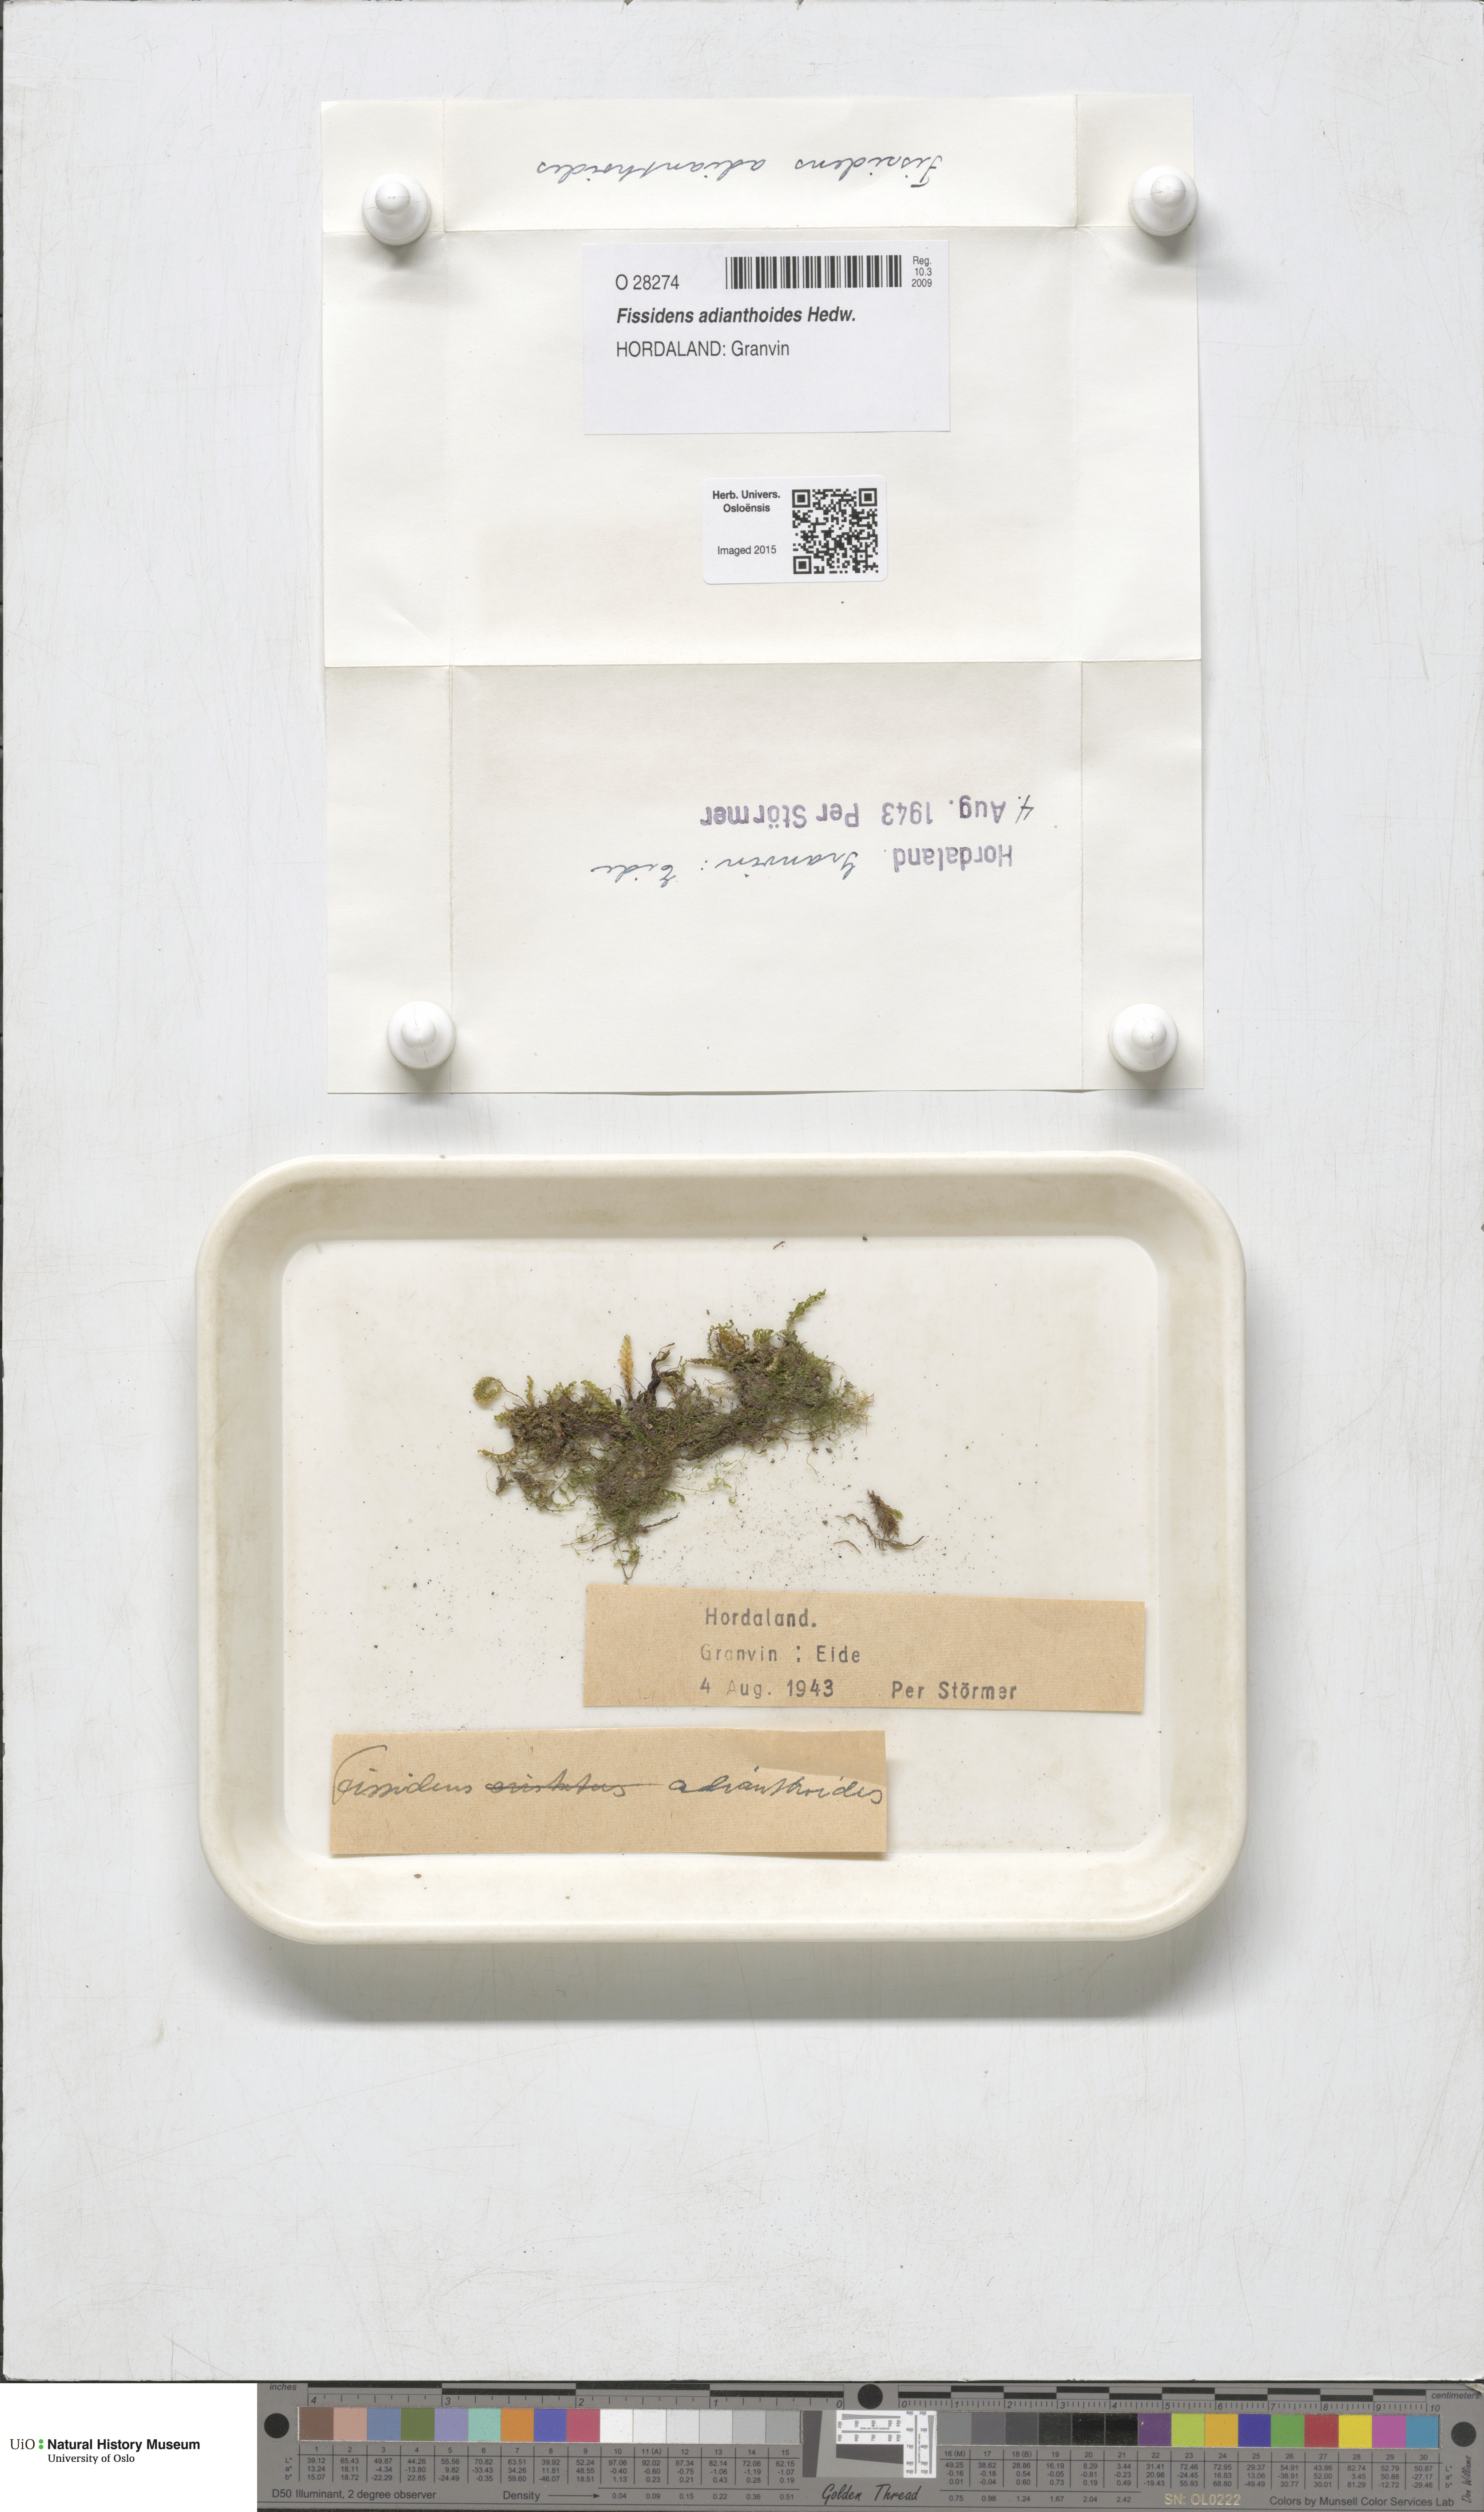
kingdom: Plantae
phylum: Bryophyta
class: Bryopsida
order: Dicranales
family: Fissidentaceae
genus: Fissidens
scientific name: Fissidens adianthoides
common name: Maidenhair pocket moss
